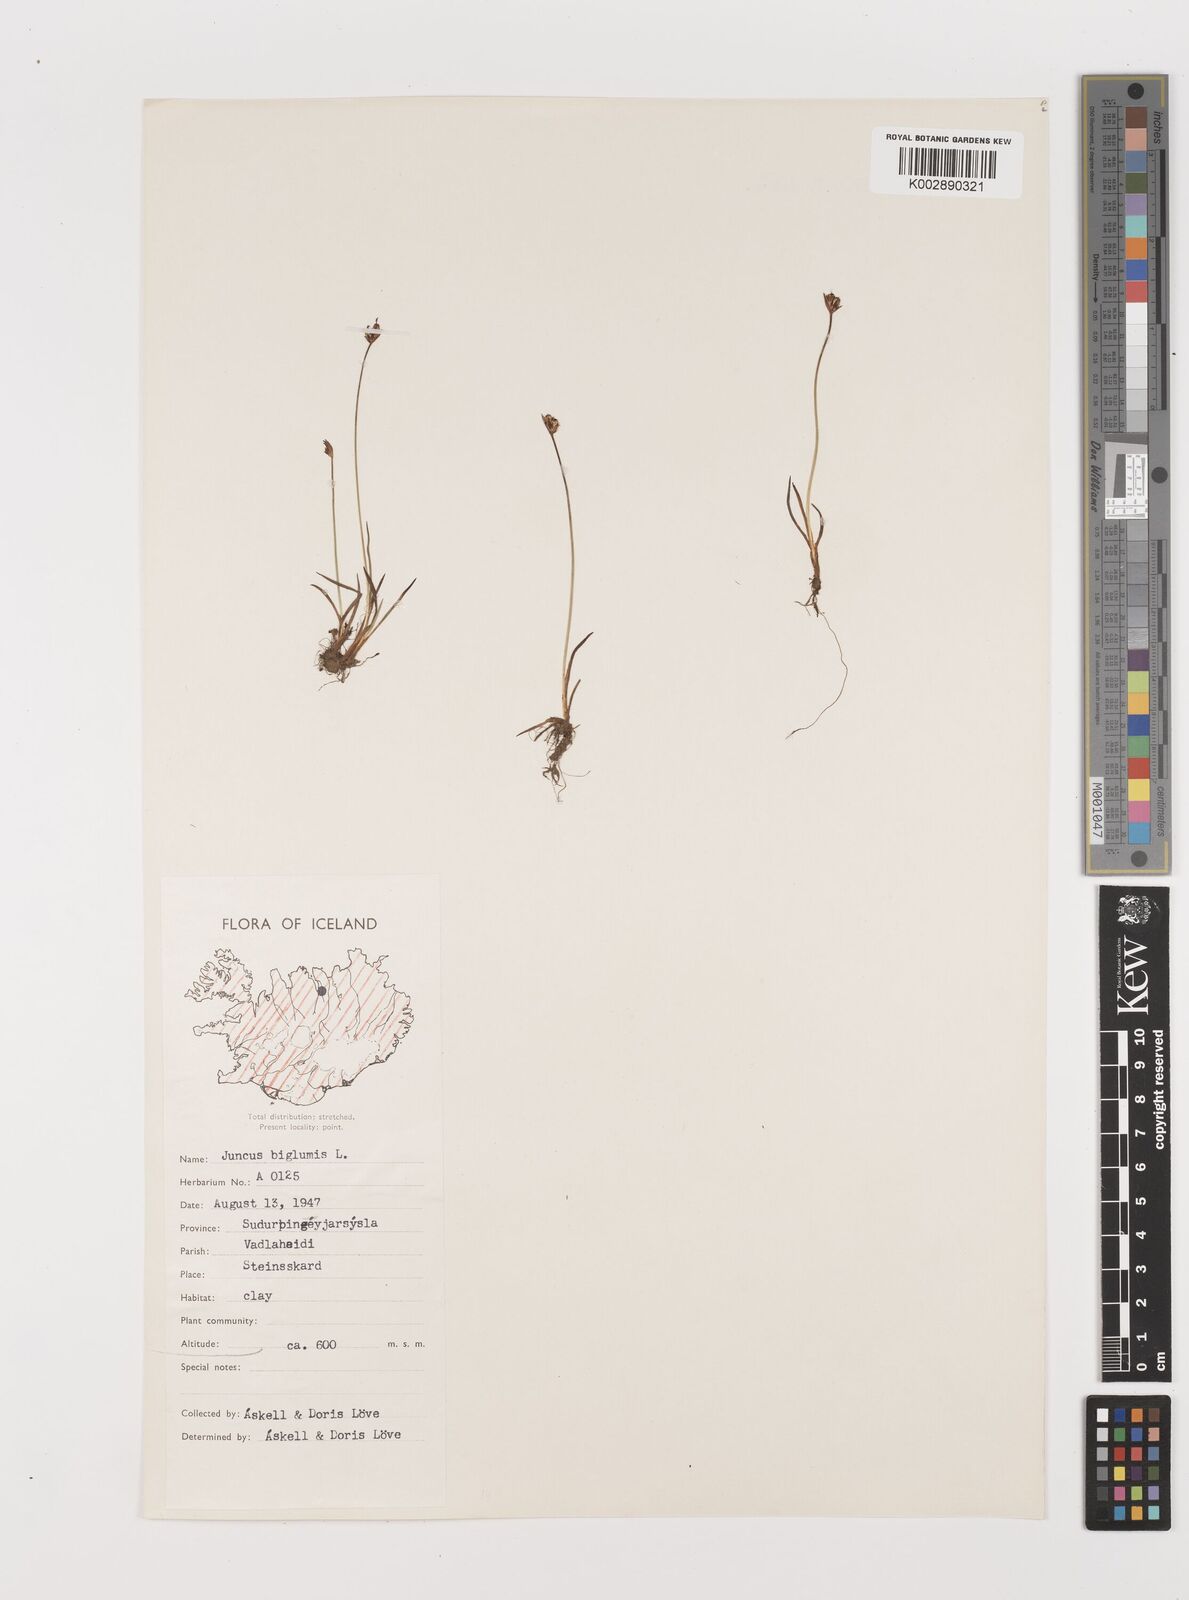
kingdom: Plantae
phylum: Tracheophyta
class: Liliopsida
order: Poales
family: Juncaceae
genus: Juncus
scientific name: Juncus biglumis
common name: Two-flowered rush
